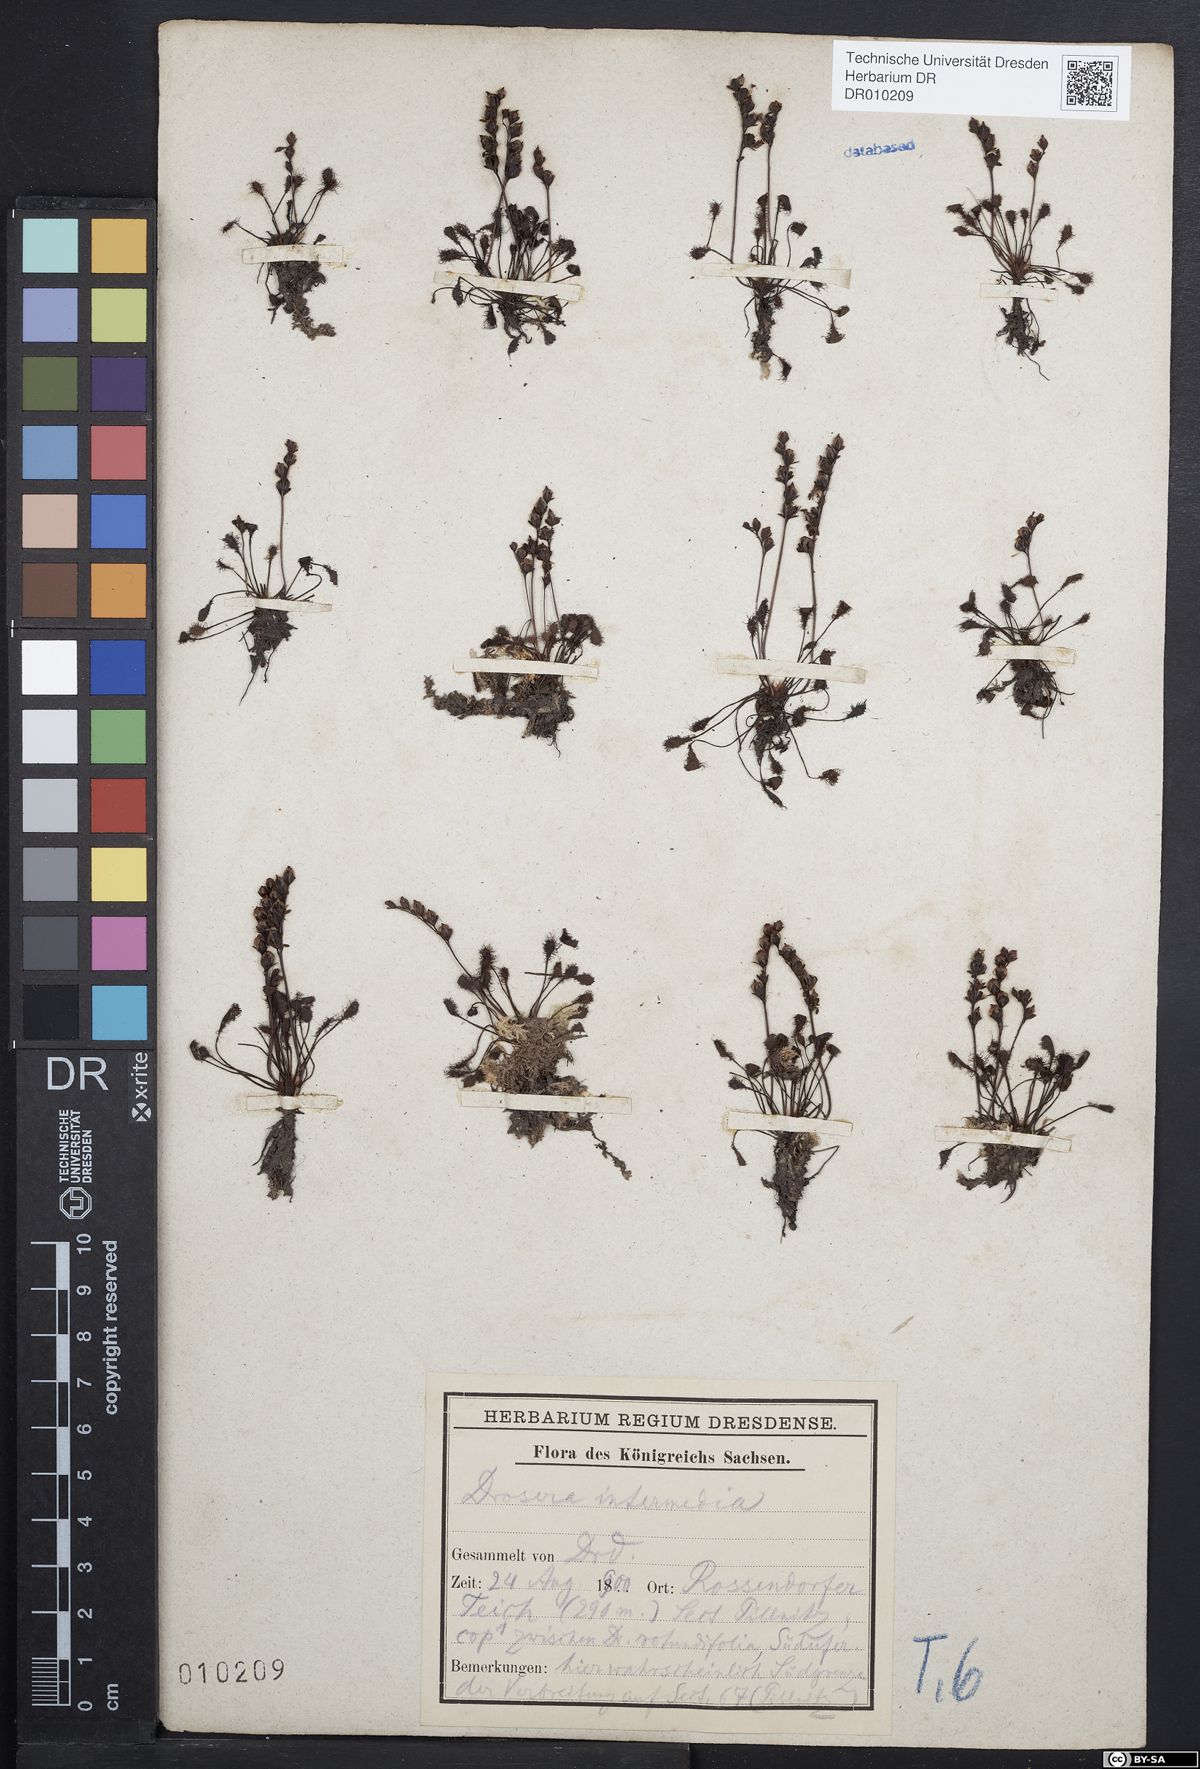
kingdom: Plantae
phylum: Tracheophyta
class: Magnoliopsida
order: Caryophyllales
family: Droseraceae
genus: Drosera
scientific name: Drosera intermedia
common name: Oblong-leaved sundew
